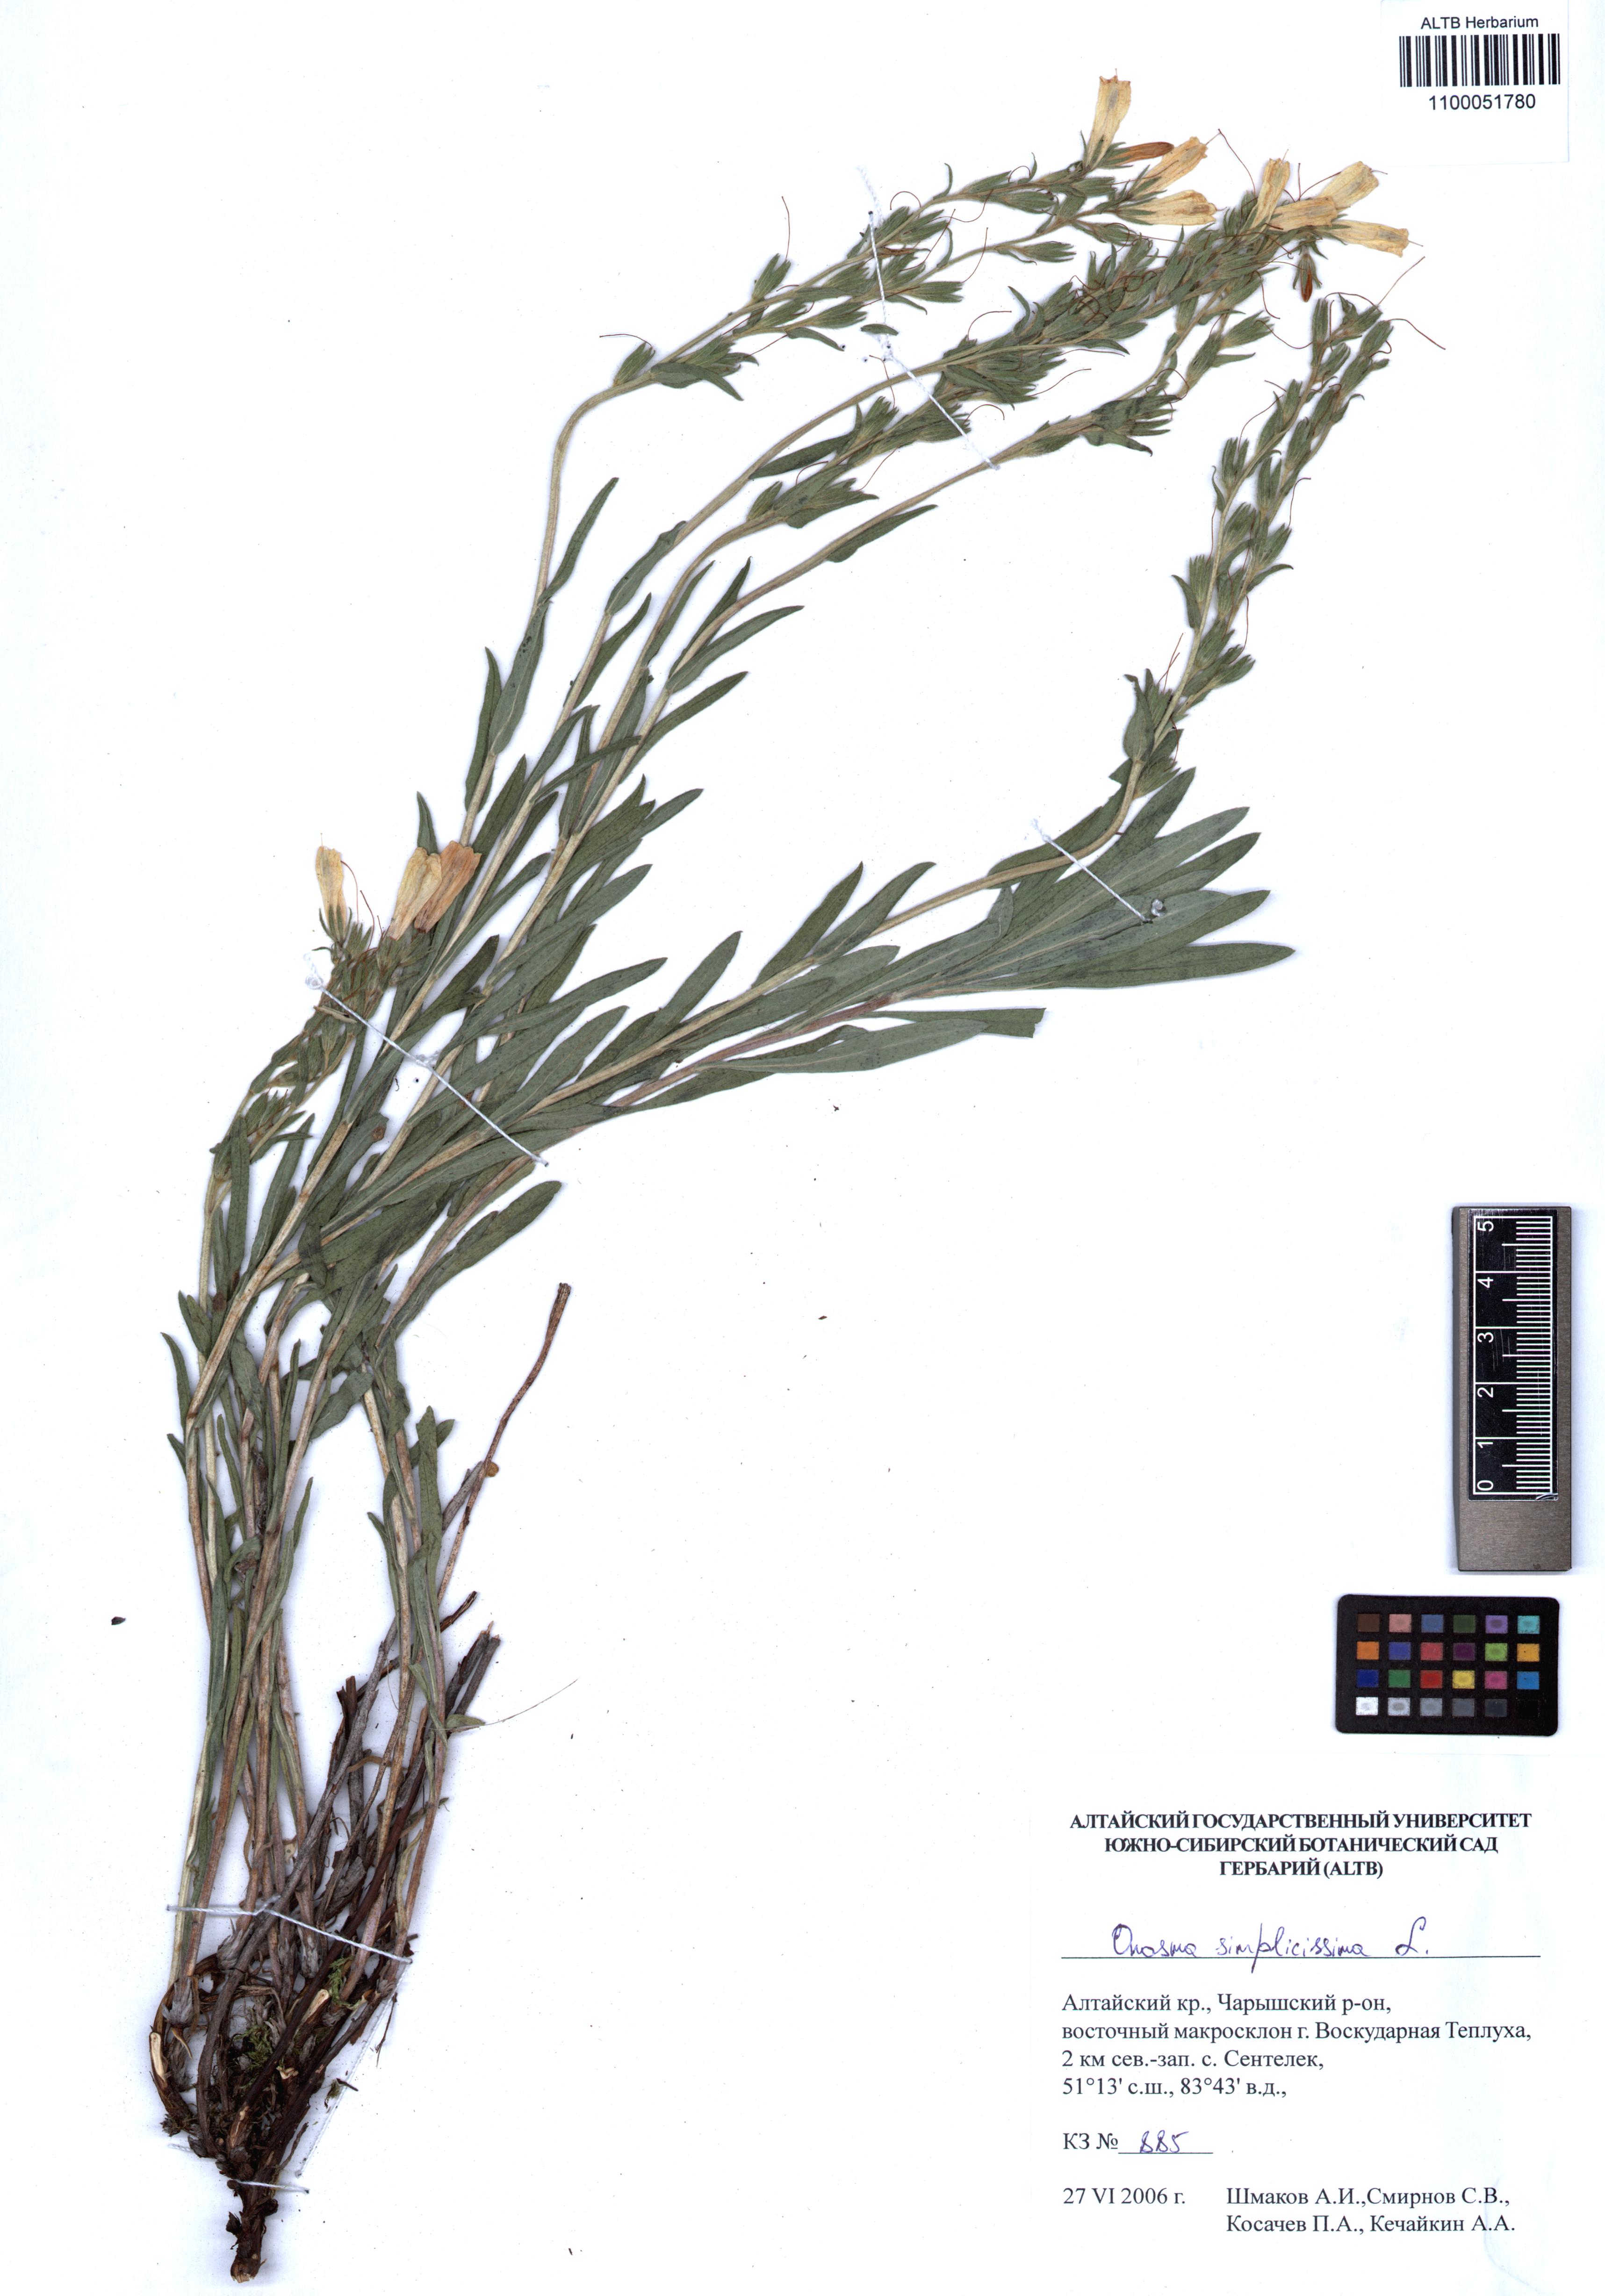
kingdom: Plantae
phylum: Tracheophyta
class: Magnoliopsida
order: Boraginales
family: Boraginaceae
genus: Onosma
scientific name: Onosma simplicissima
